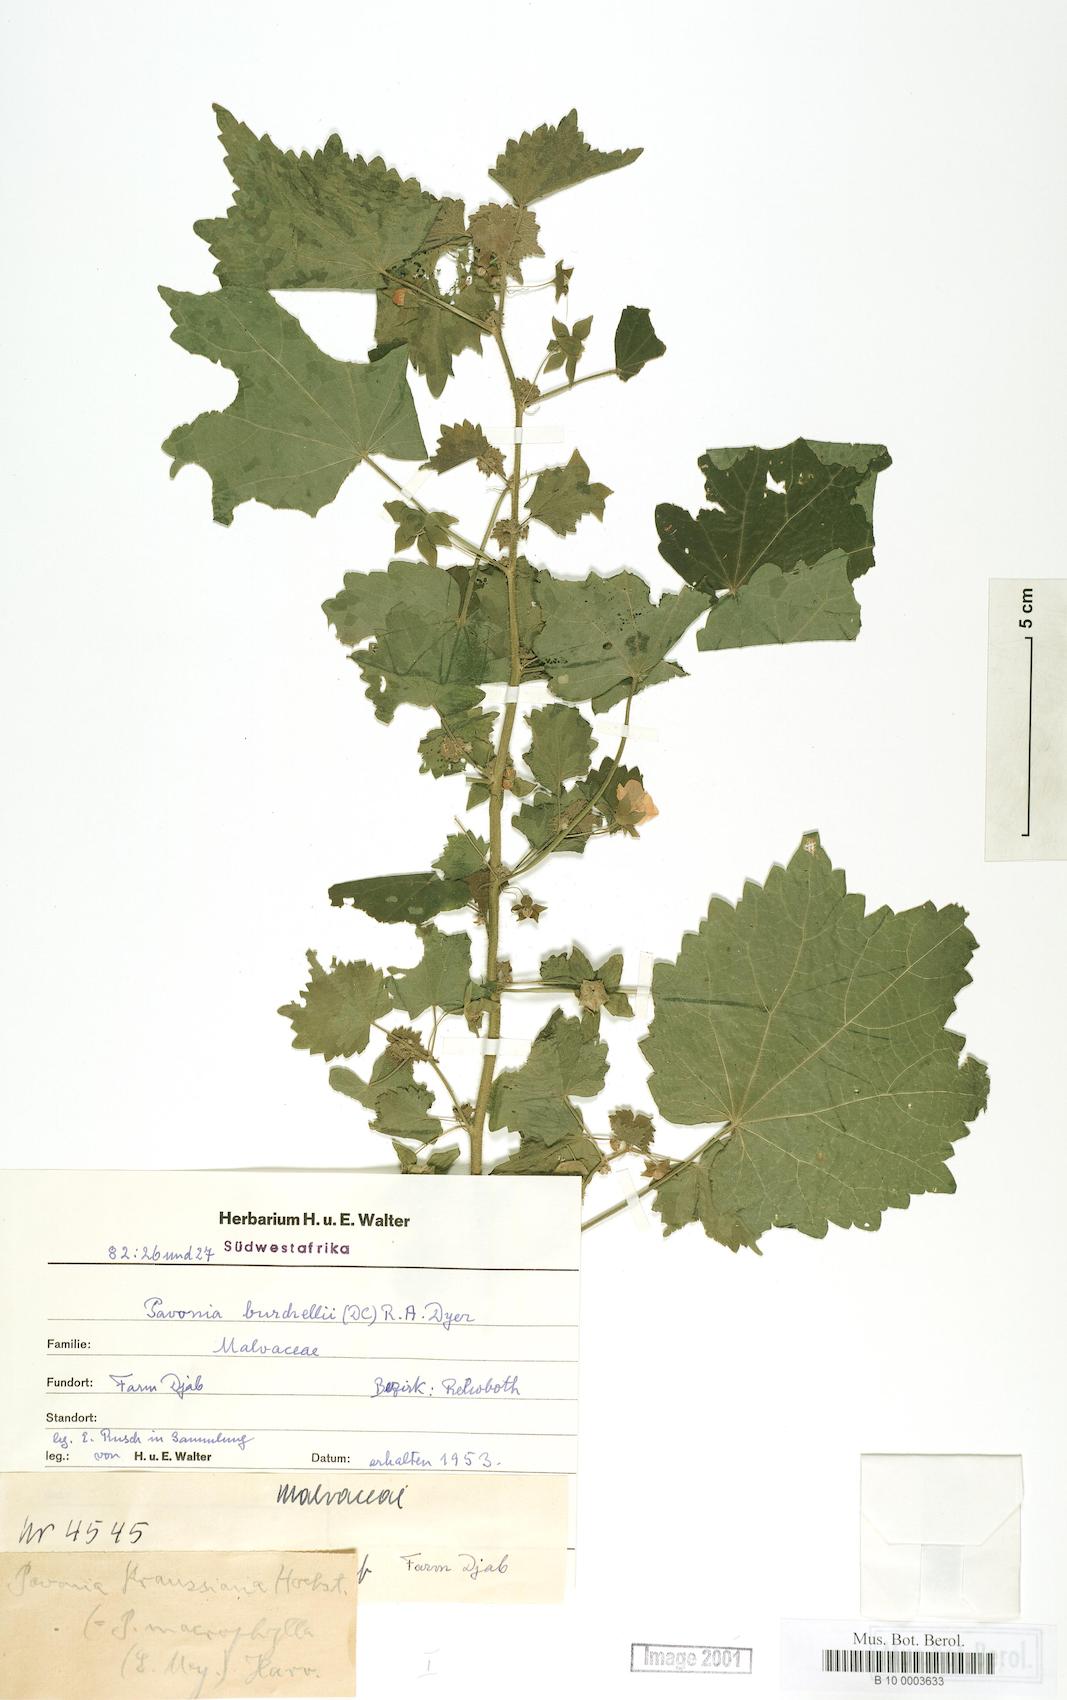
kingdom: Plantae
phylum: Tracheophyta
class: Magnoliopsida
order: Malvales
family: Malvaceae
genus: Pavonia
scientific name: Pavonia burchellii
